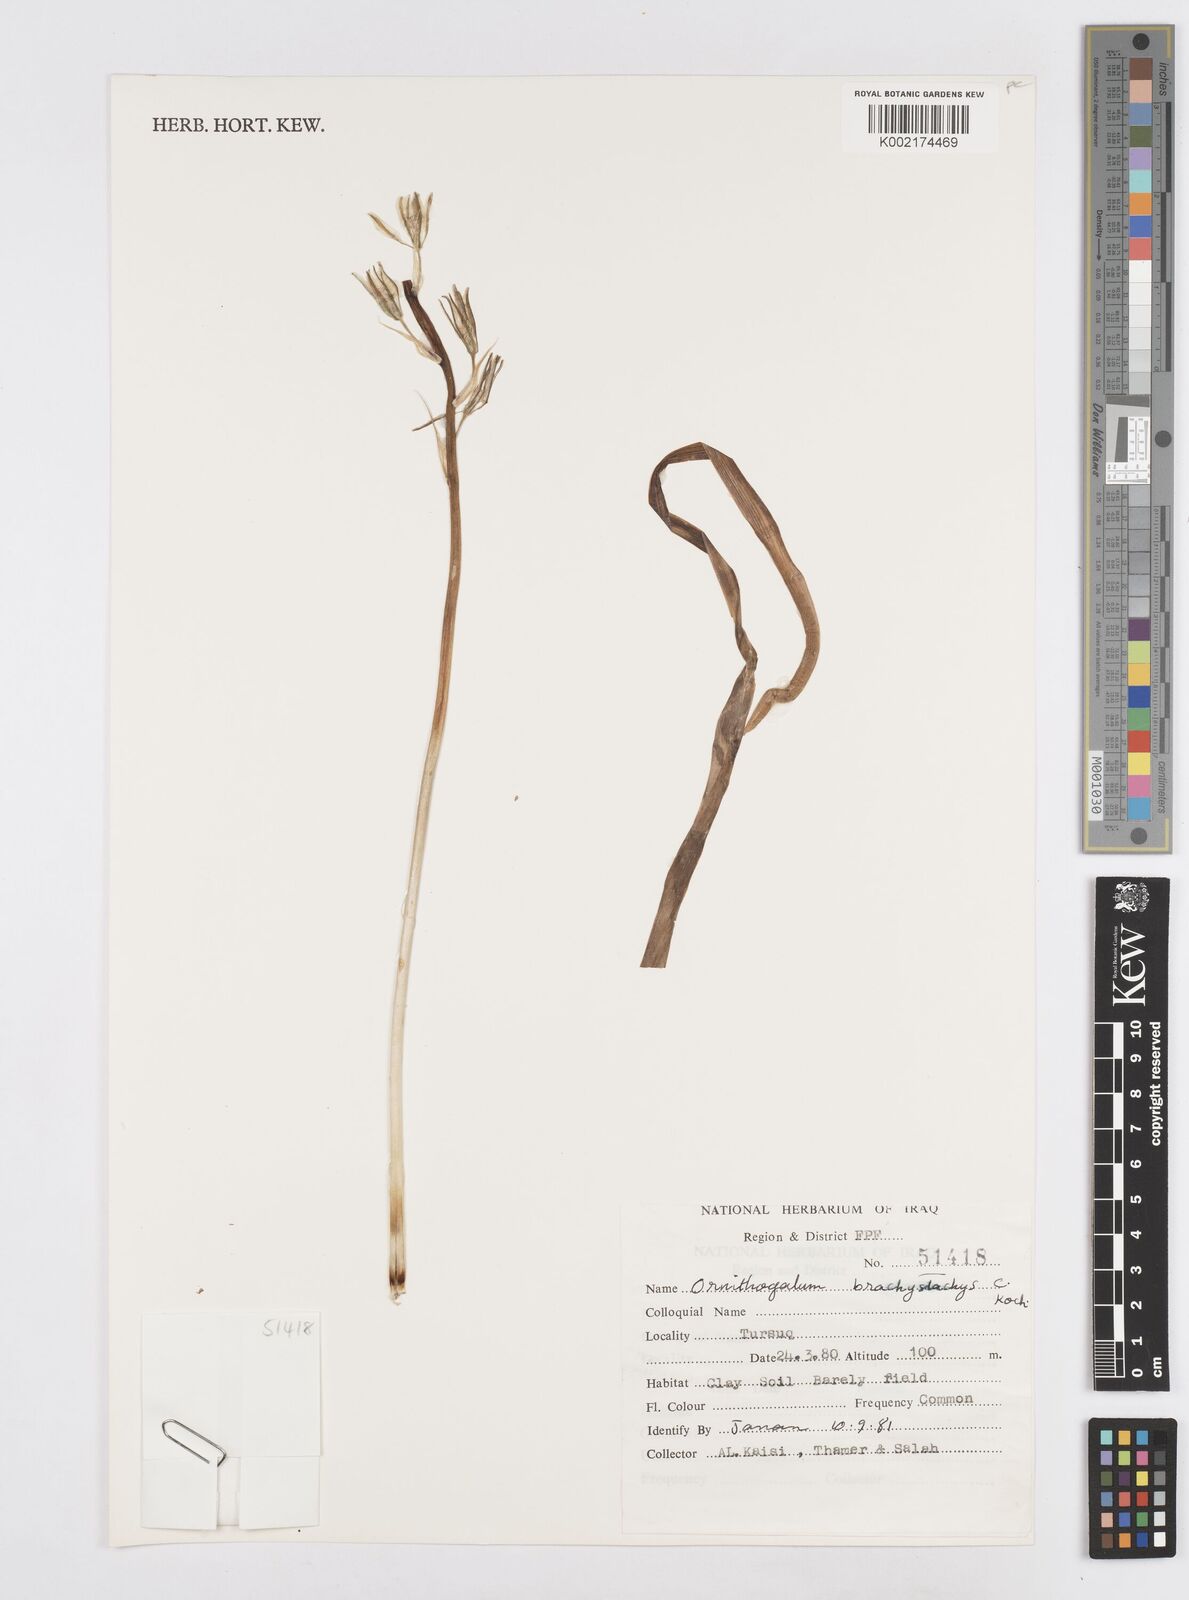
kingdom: Plantae
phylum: Tracheophyta
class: Liliopsida
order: Asparagales
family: Asparagaceae
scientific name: Asparagaceae
